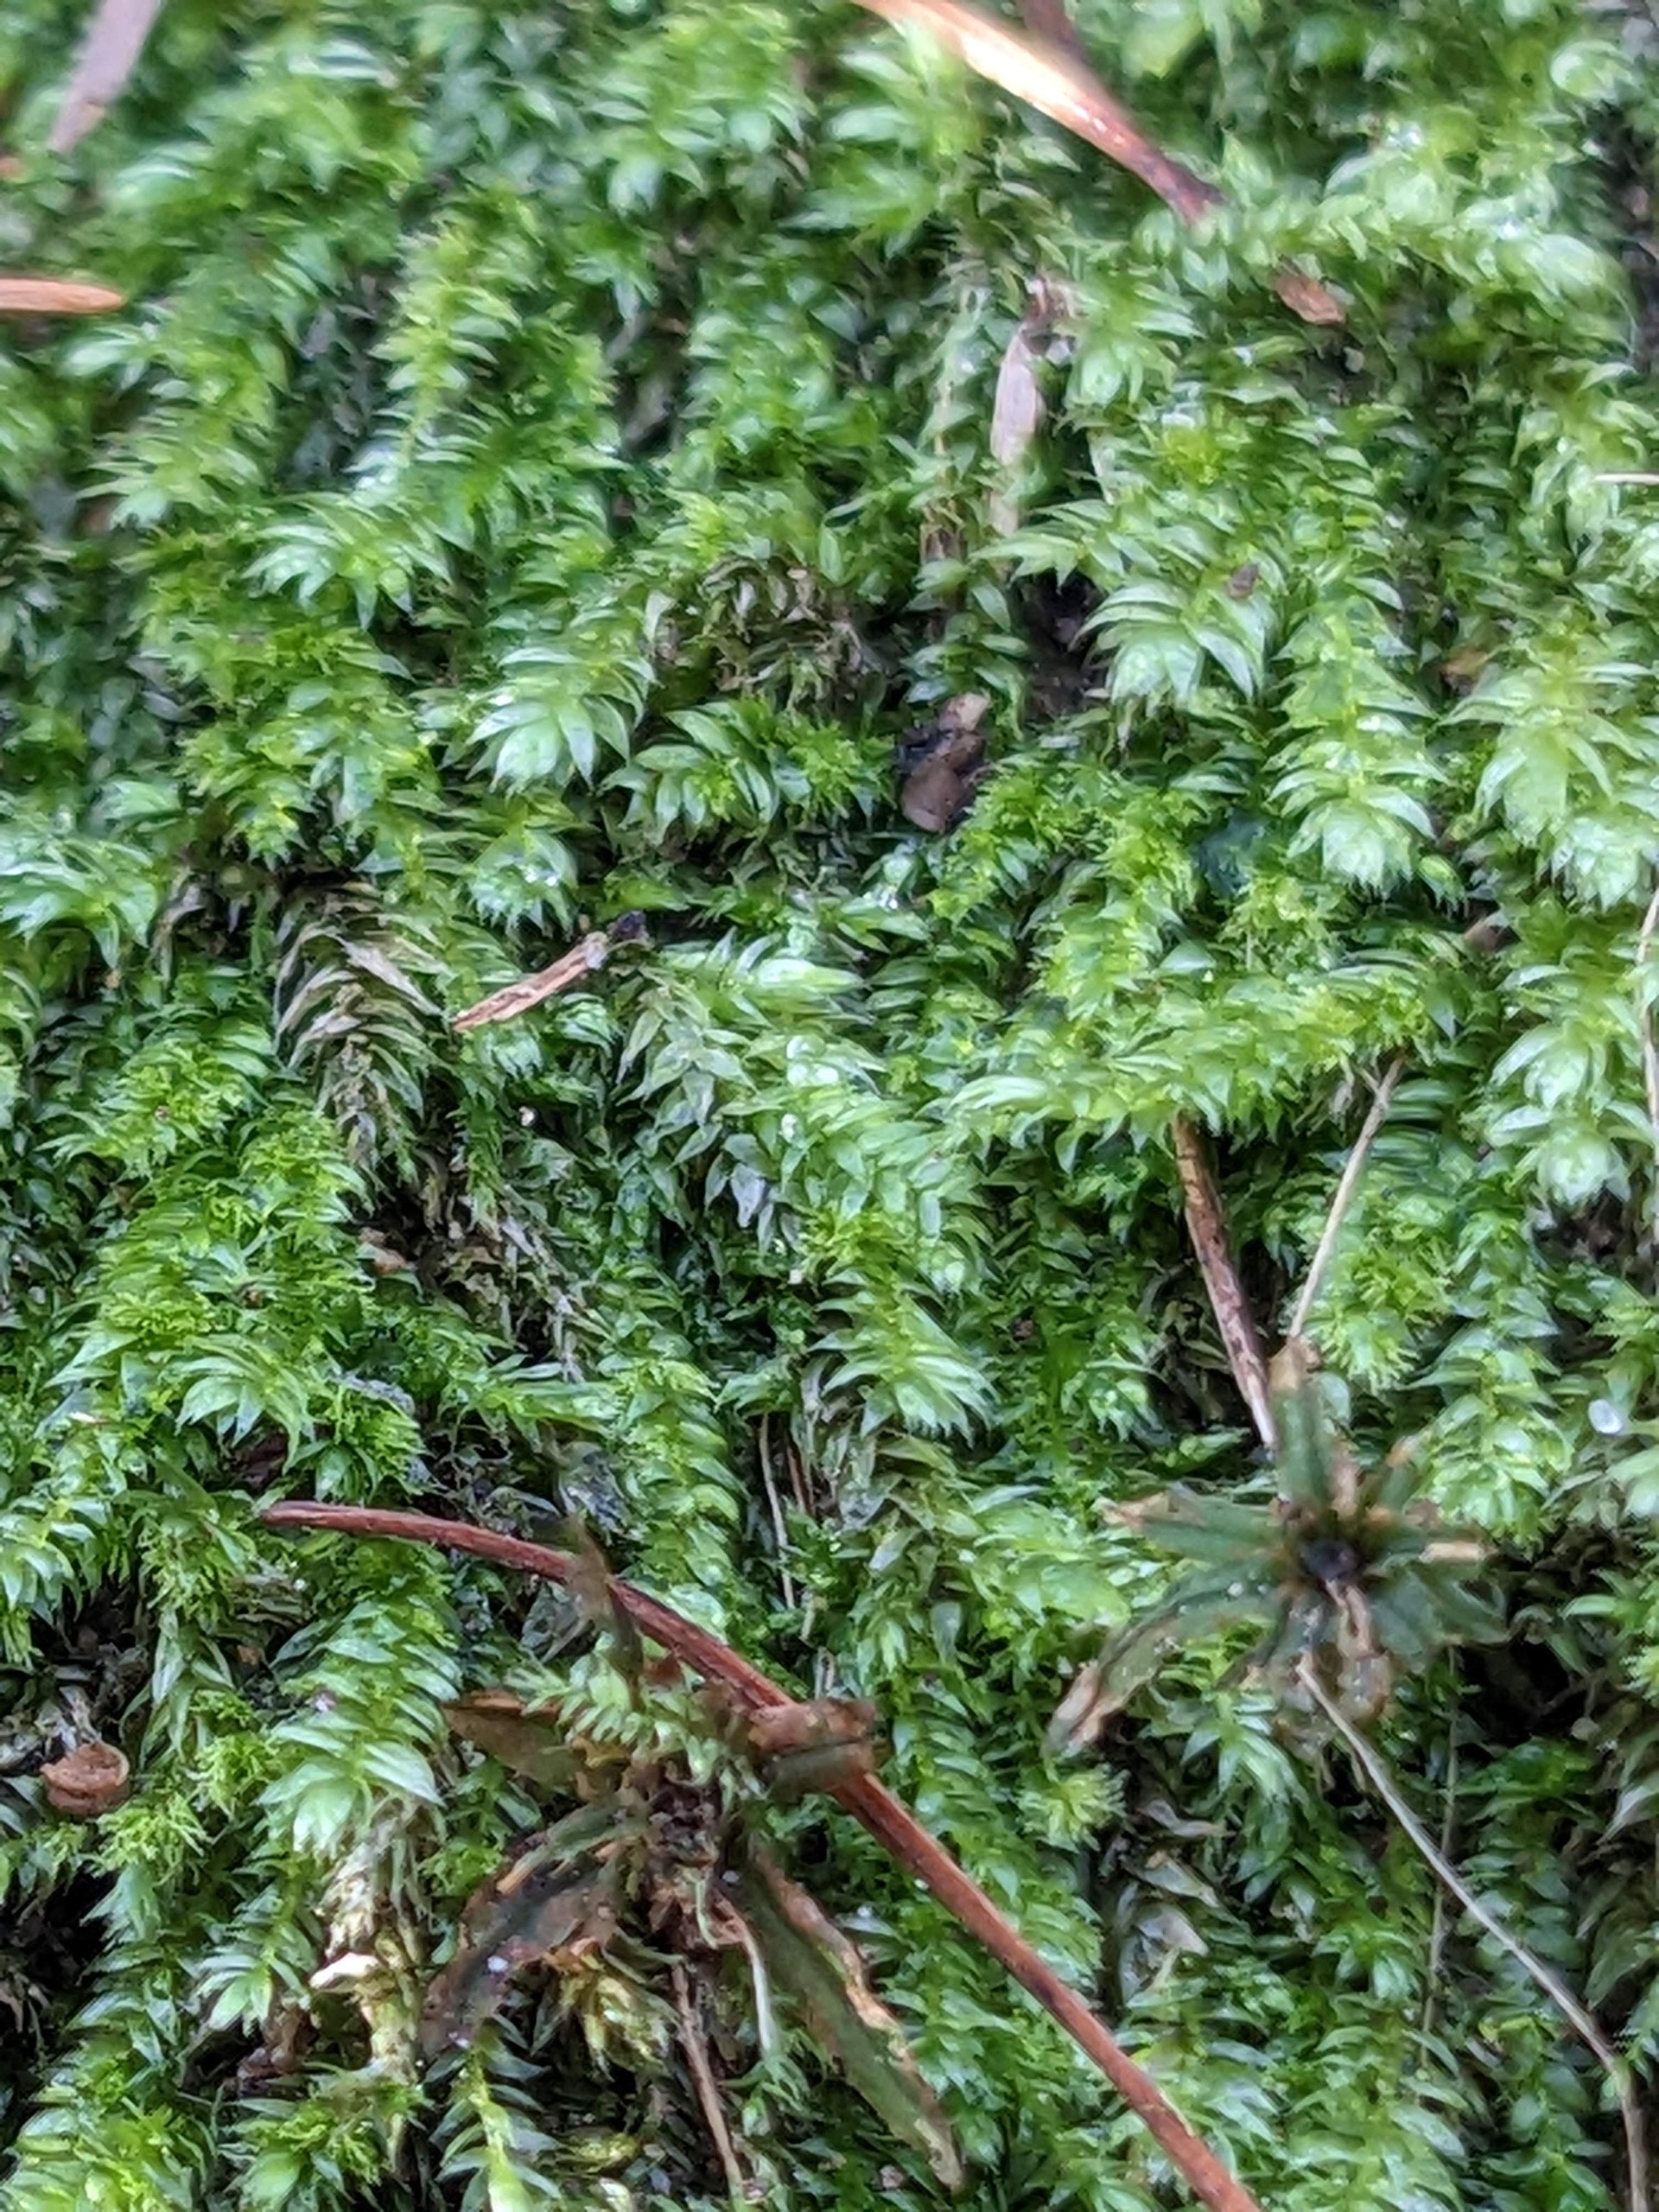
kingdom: Plantae
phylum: Bryophyta
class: Bryopsida
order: Hypnales
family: Plagiotheciaceae
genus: Pseudotaxiphyllum
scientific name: Pseudotaxiphyllum elegans
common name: Skinnende ynglegren
